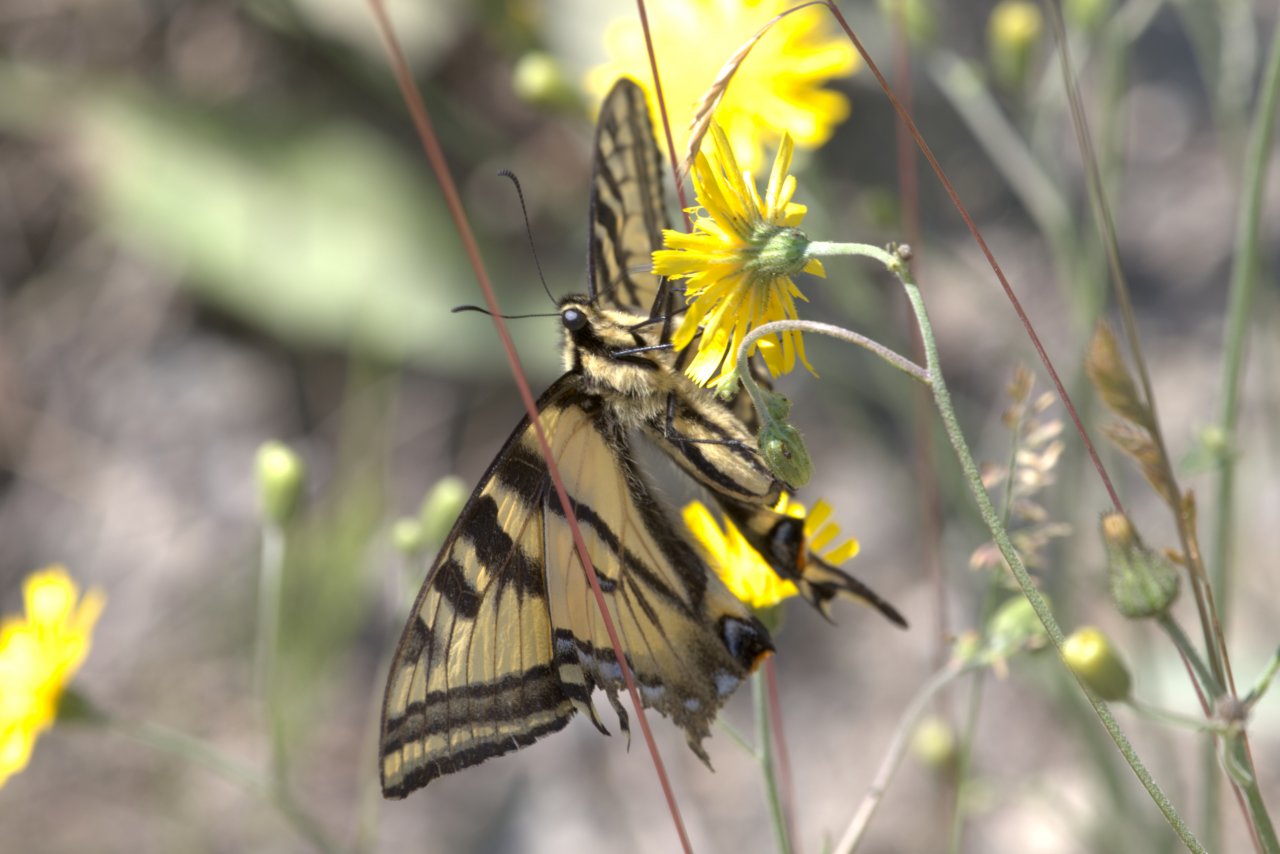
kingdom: Animalia
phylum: Arthropoda
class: Insecta
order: Lepidoptera
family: Papilionidae
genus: Pterourus
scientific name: Pterourus rutulus
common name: Western Tiger Swallowtail
